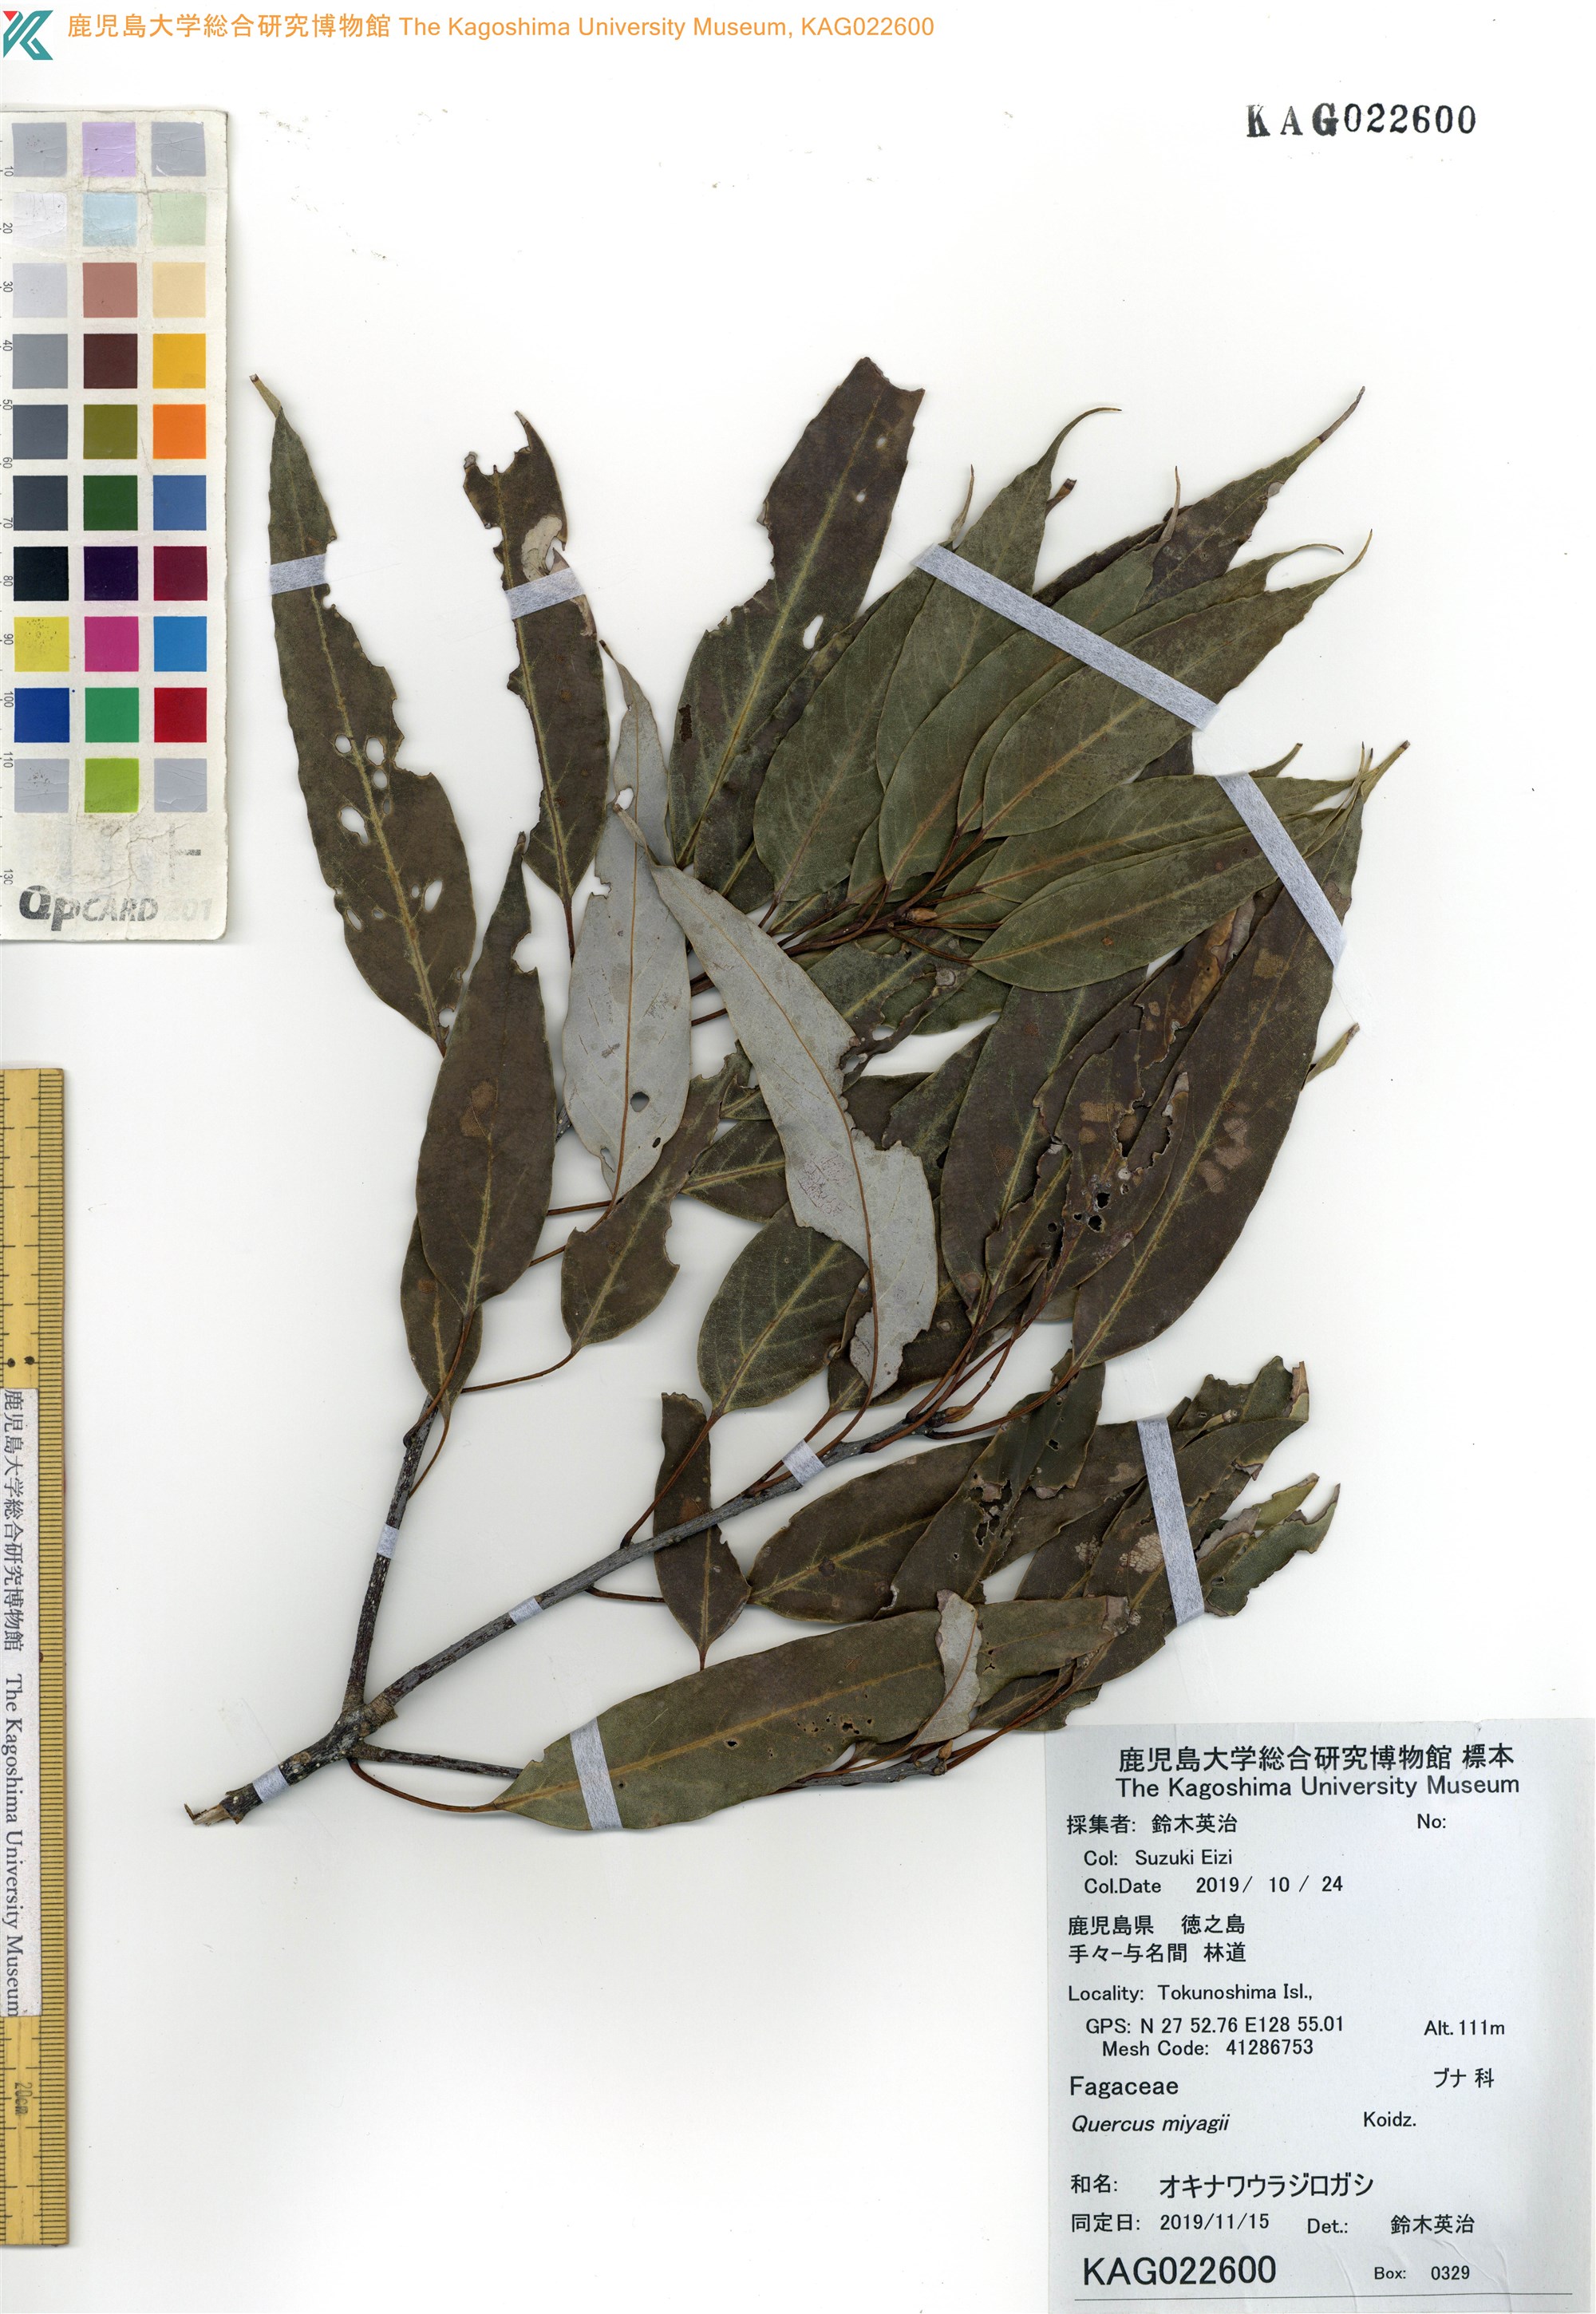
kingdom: Plantae
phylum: Tracheophyta
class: Magnoliopsida
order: Fagales
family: Fagaceae
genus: Quercus
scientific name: Quercus miyagii
